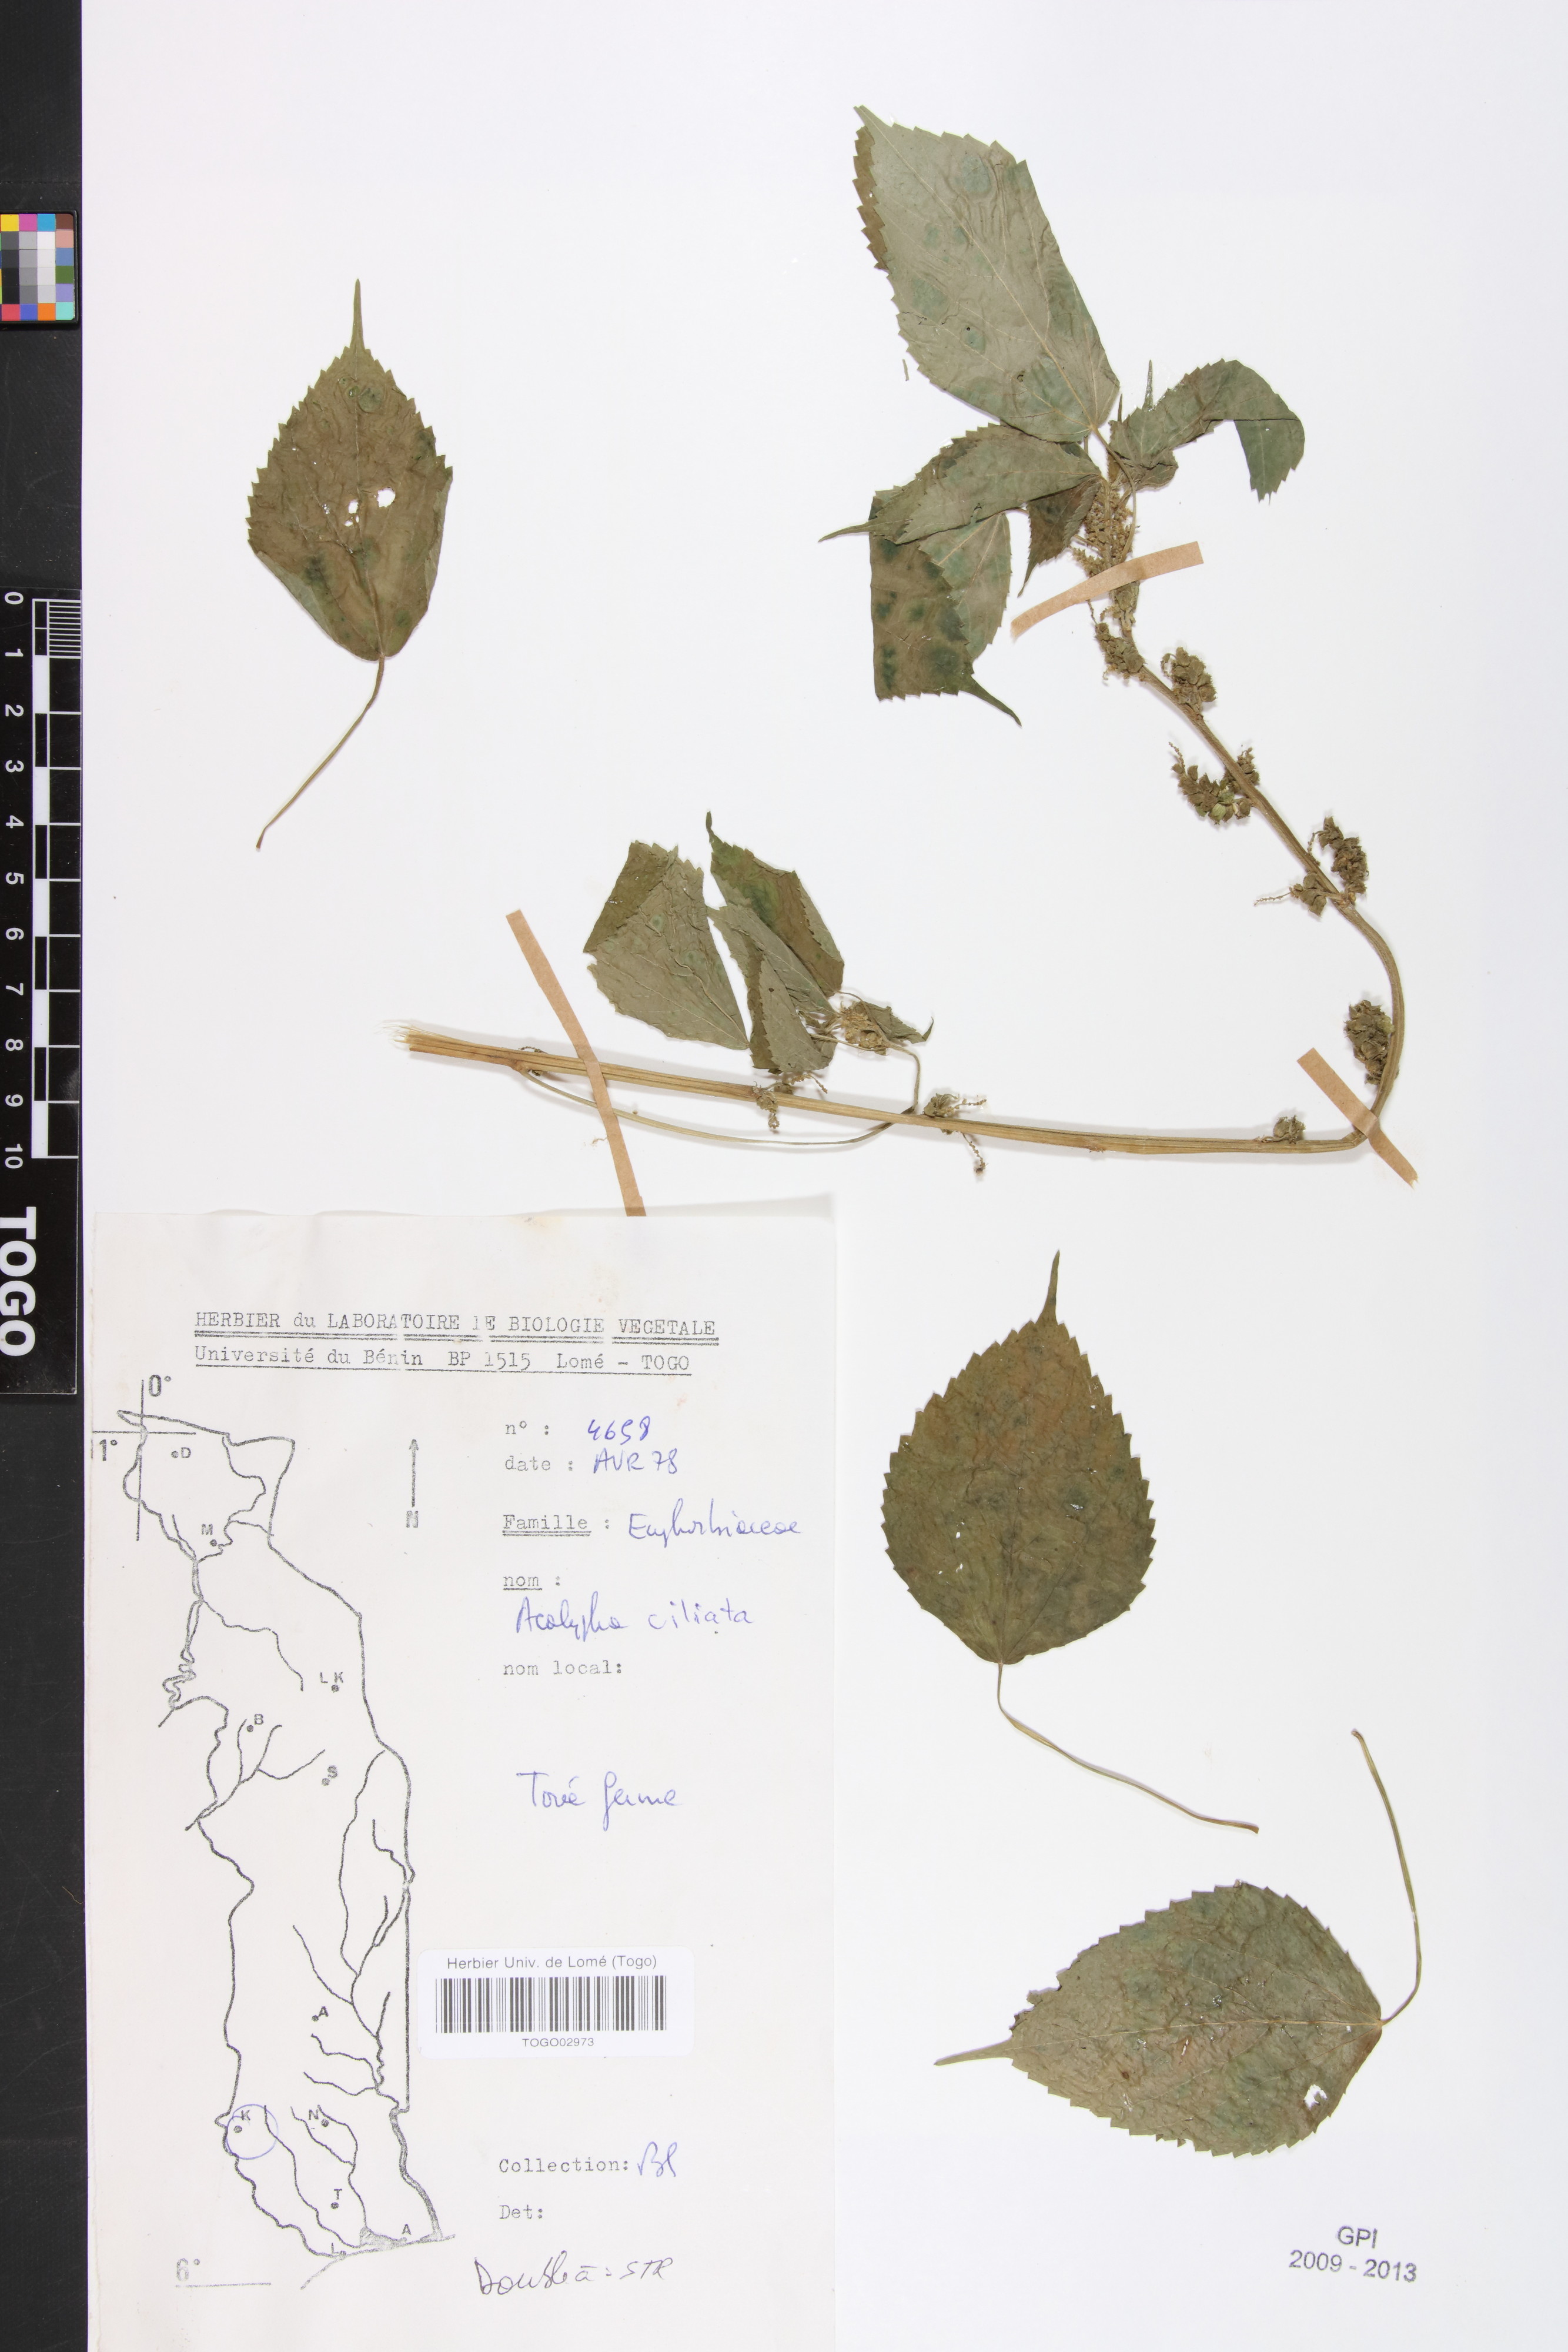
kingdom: Plantae
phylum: Tracheophyta
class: Magnoliopsida
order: Malpighiales
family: Phyllanthaceae
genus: Maesobotrya
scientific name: Maesobotrya
